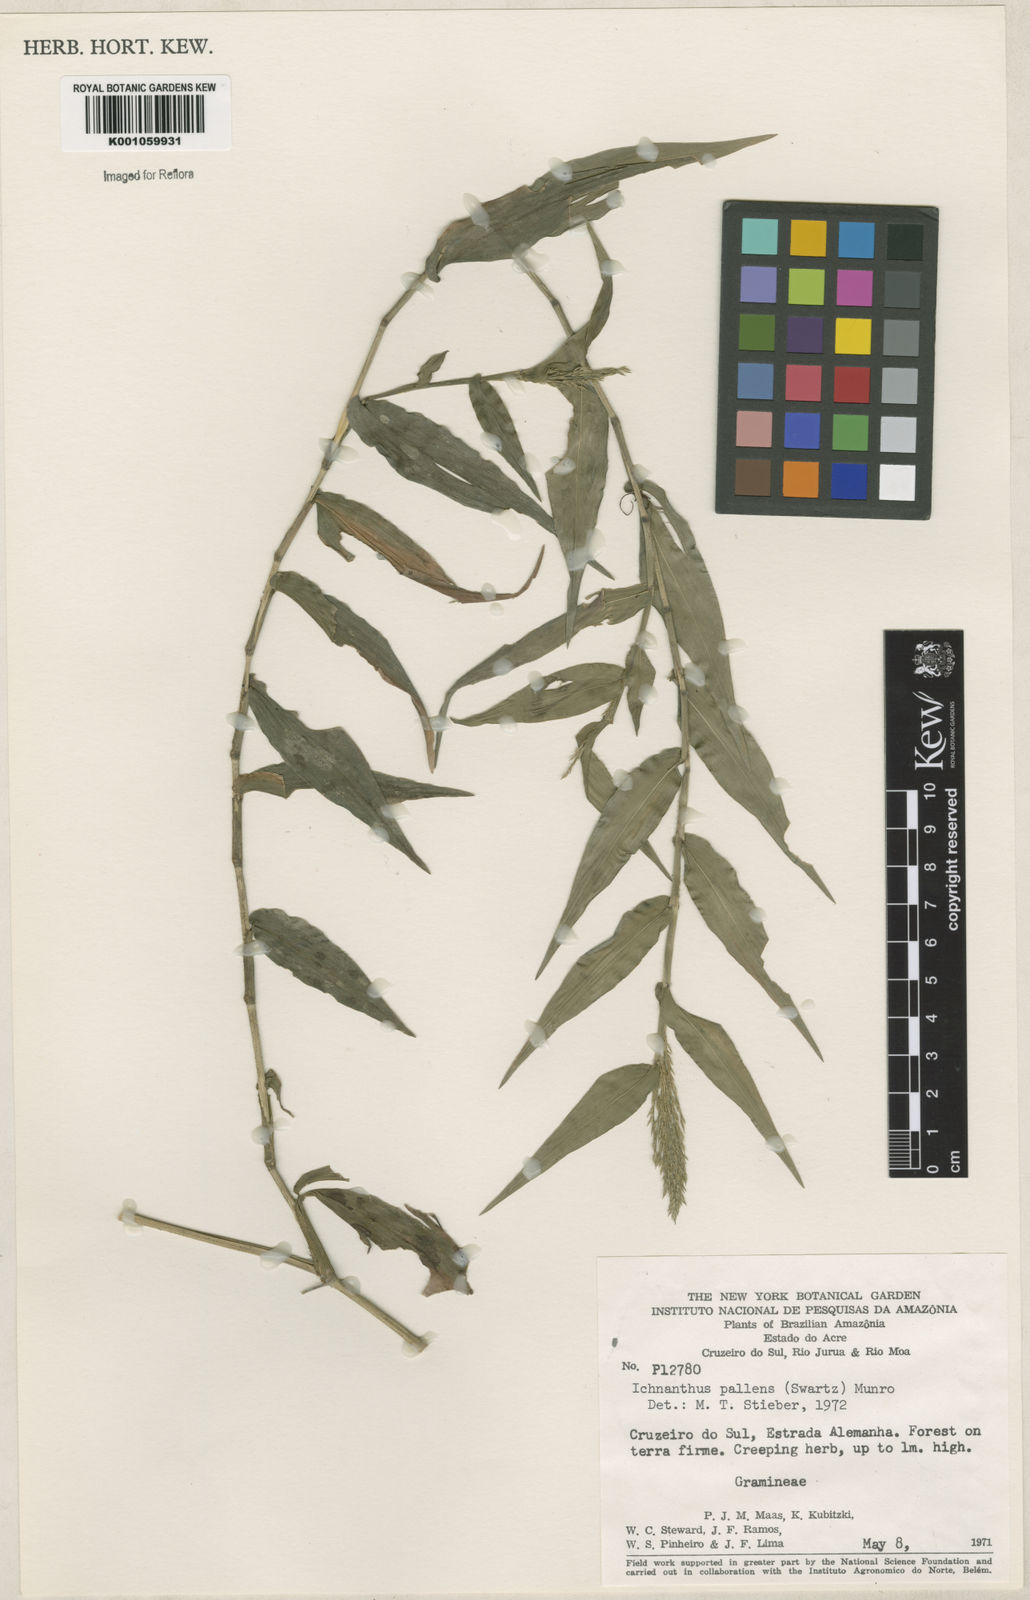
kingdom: Plantae
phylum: Tracheophyta
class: Liliopsida
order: Poales
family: Poaceae
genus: Ichnanthus
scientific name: Ichnanthus pallens
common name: Water grass
